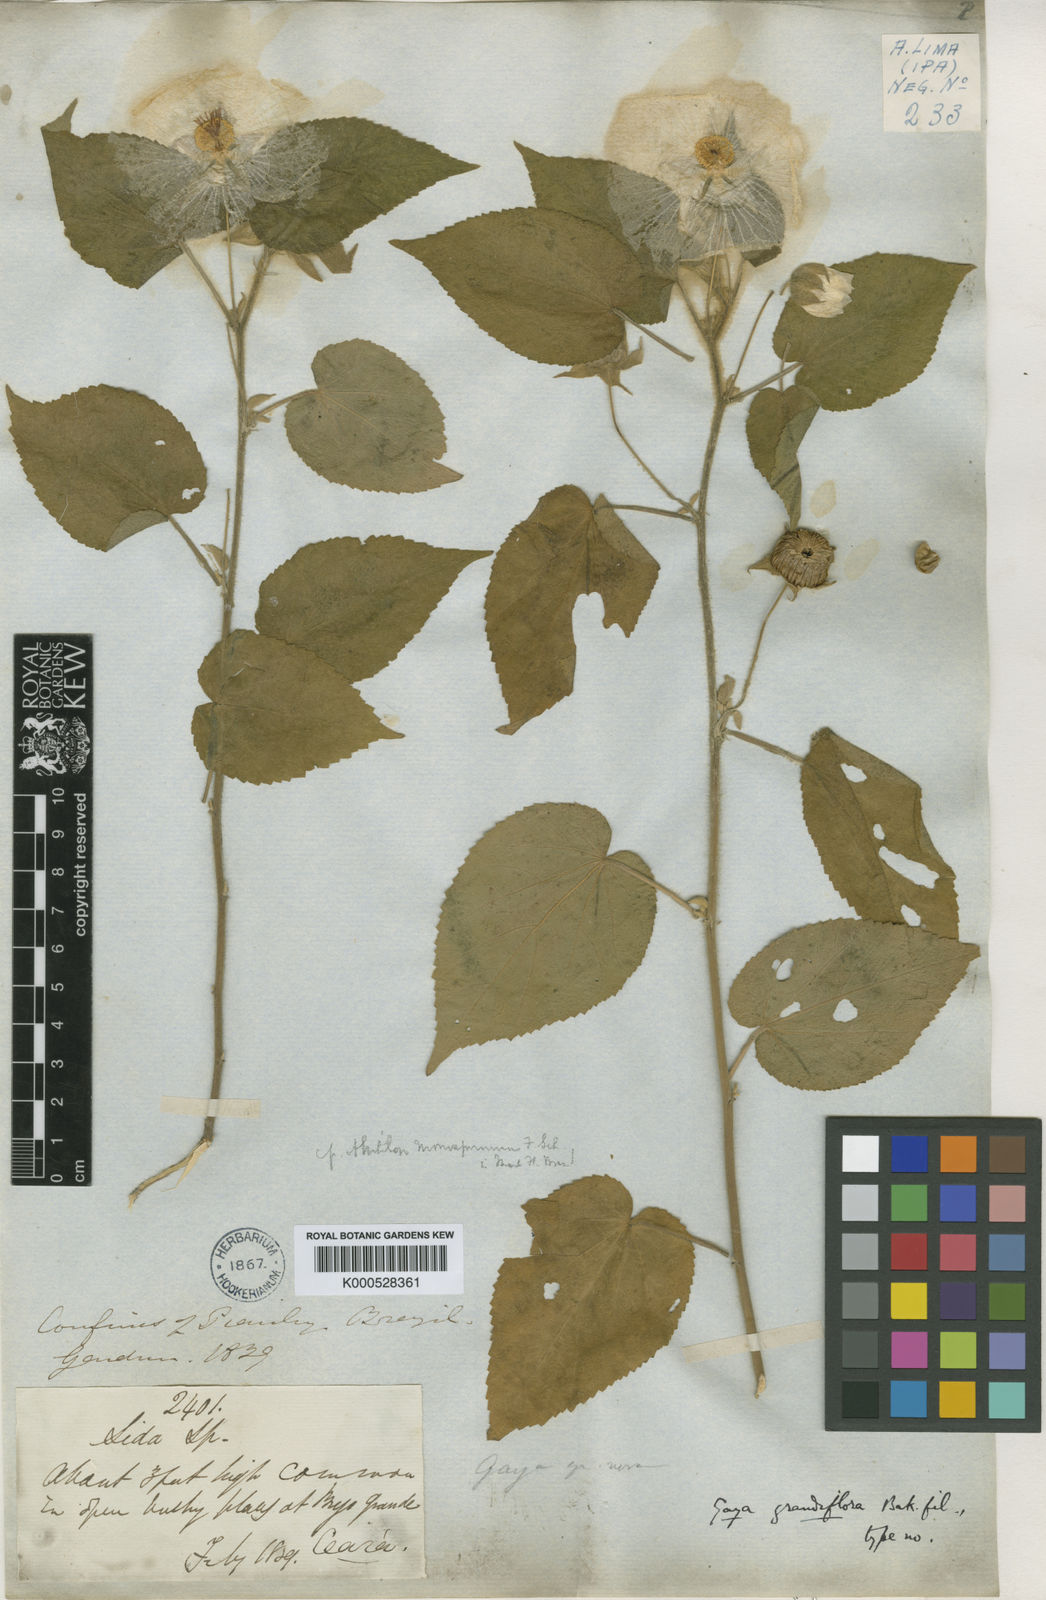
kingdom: Plantae
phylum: Tracheophyta
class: Magnoliopsida
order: Malvales
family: Malvaceae
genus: Gaya
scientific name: Gaya grandiflora
